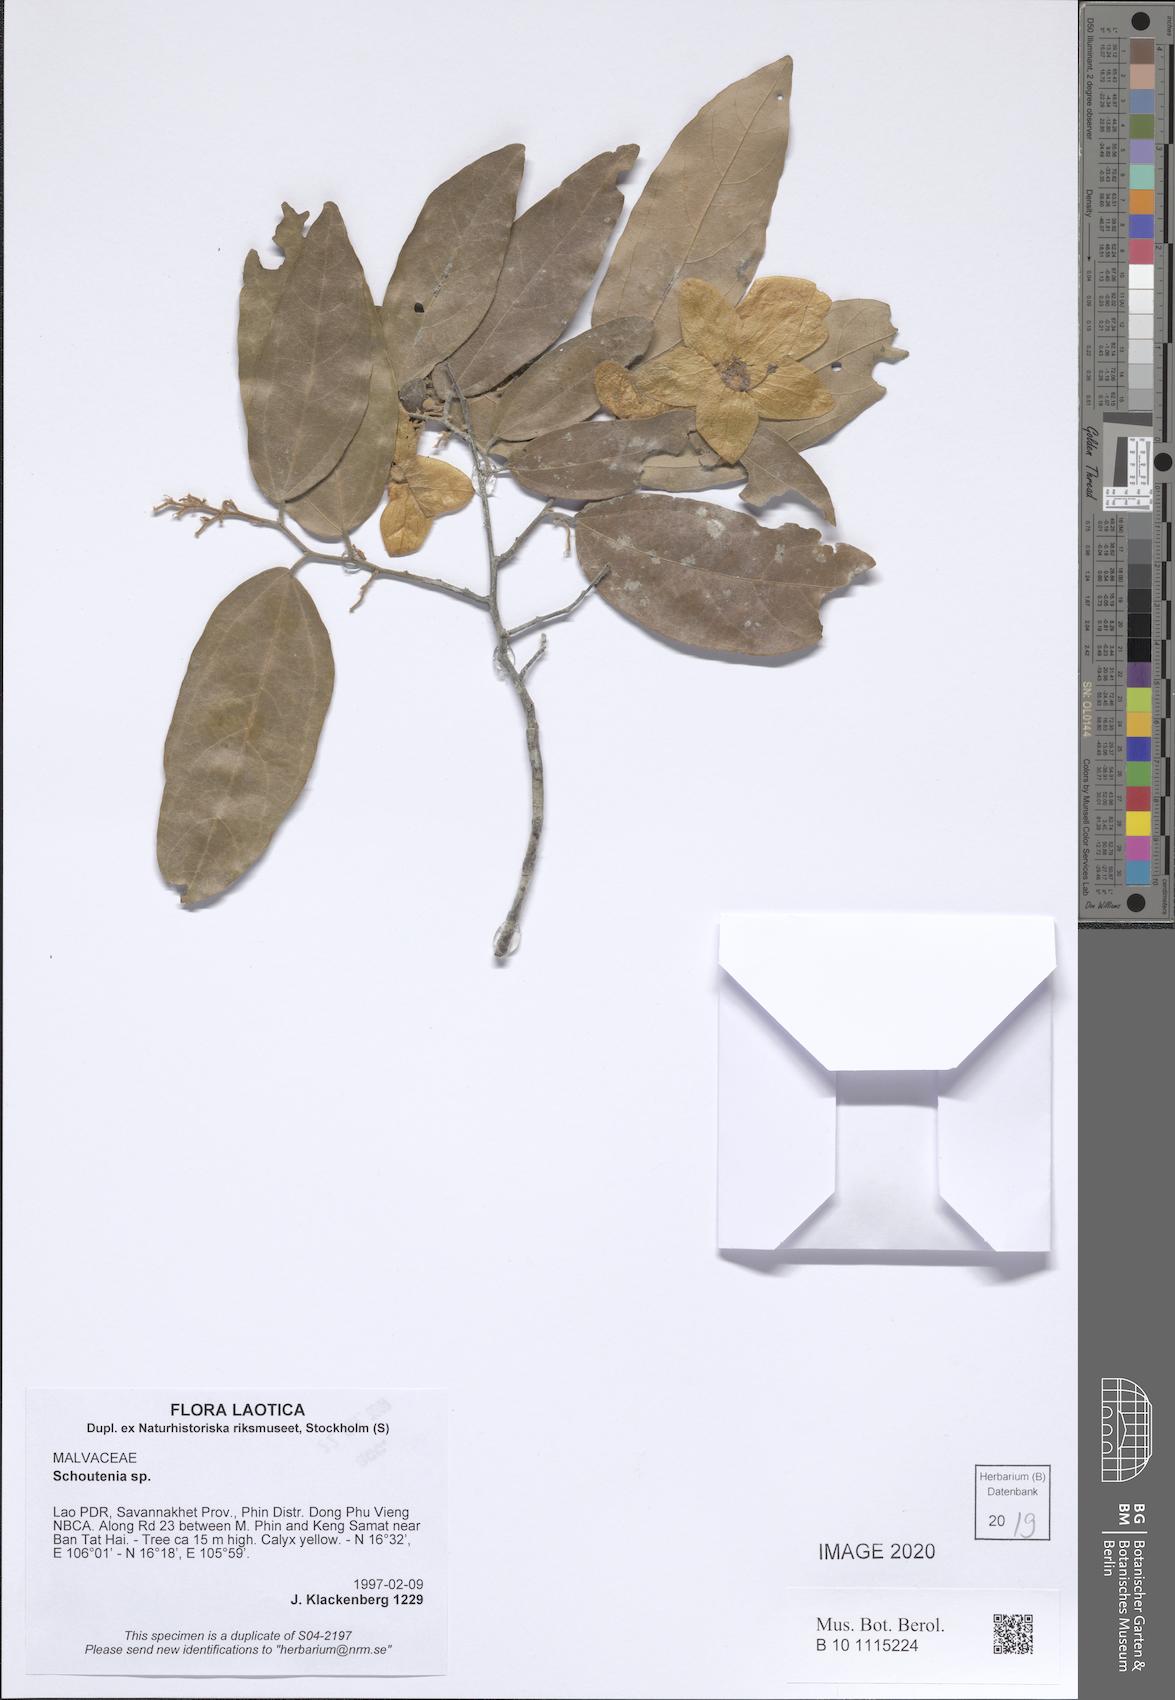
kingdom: Plantae
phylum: Tracheophyta
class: Magnoliopsida
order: Malvales
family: Malvaceae
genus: Schoutenia
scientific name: Schoutenia
